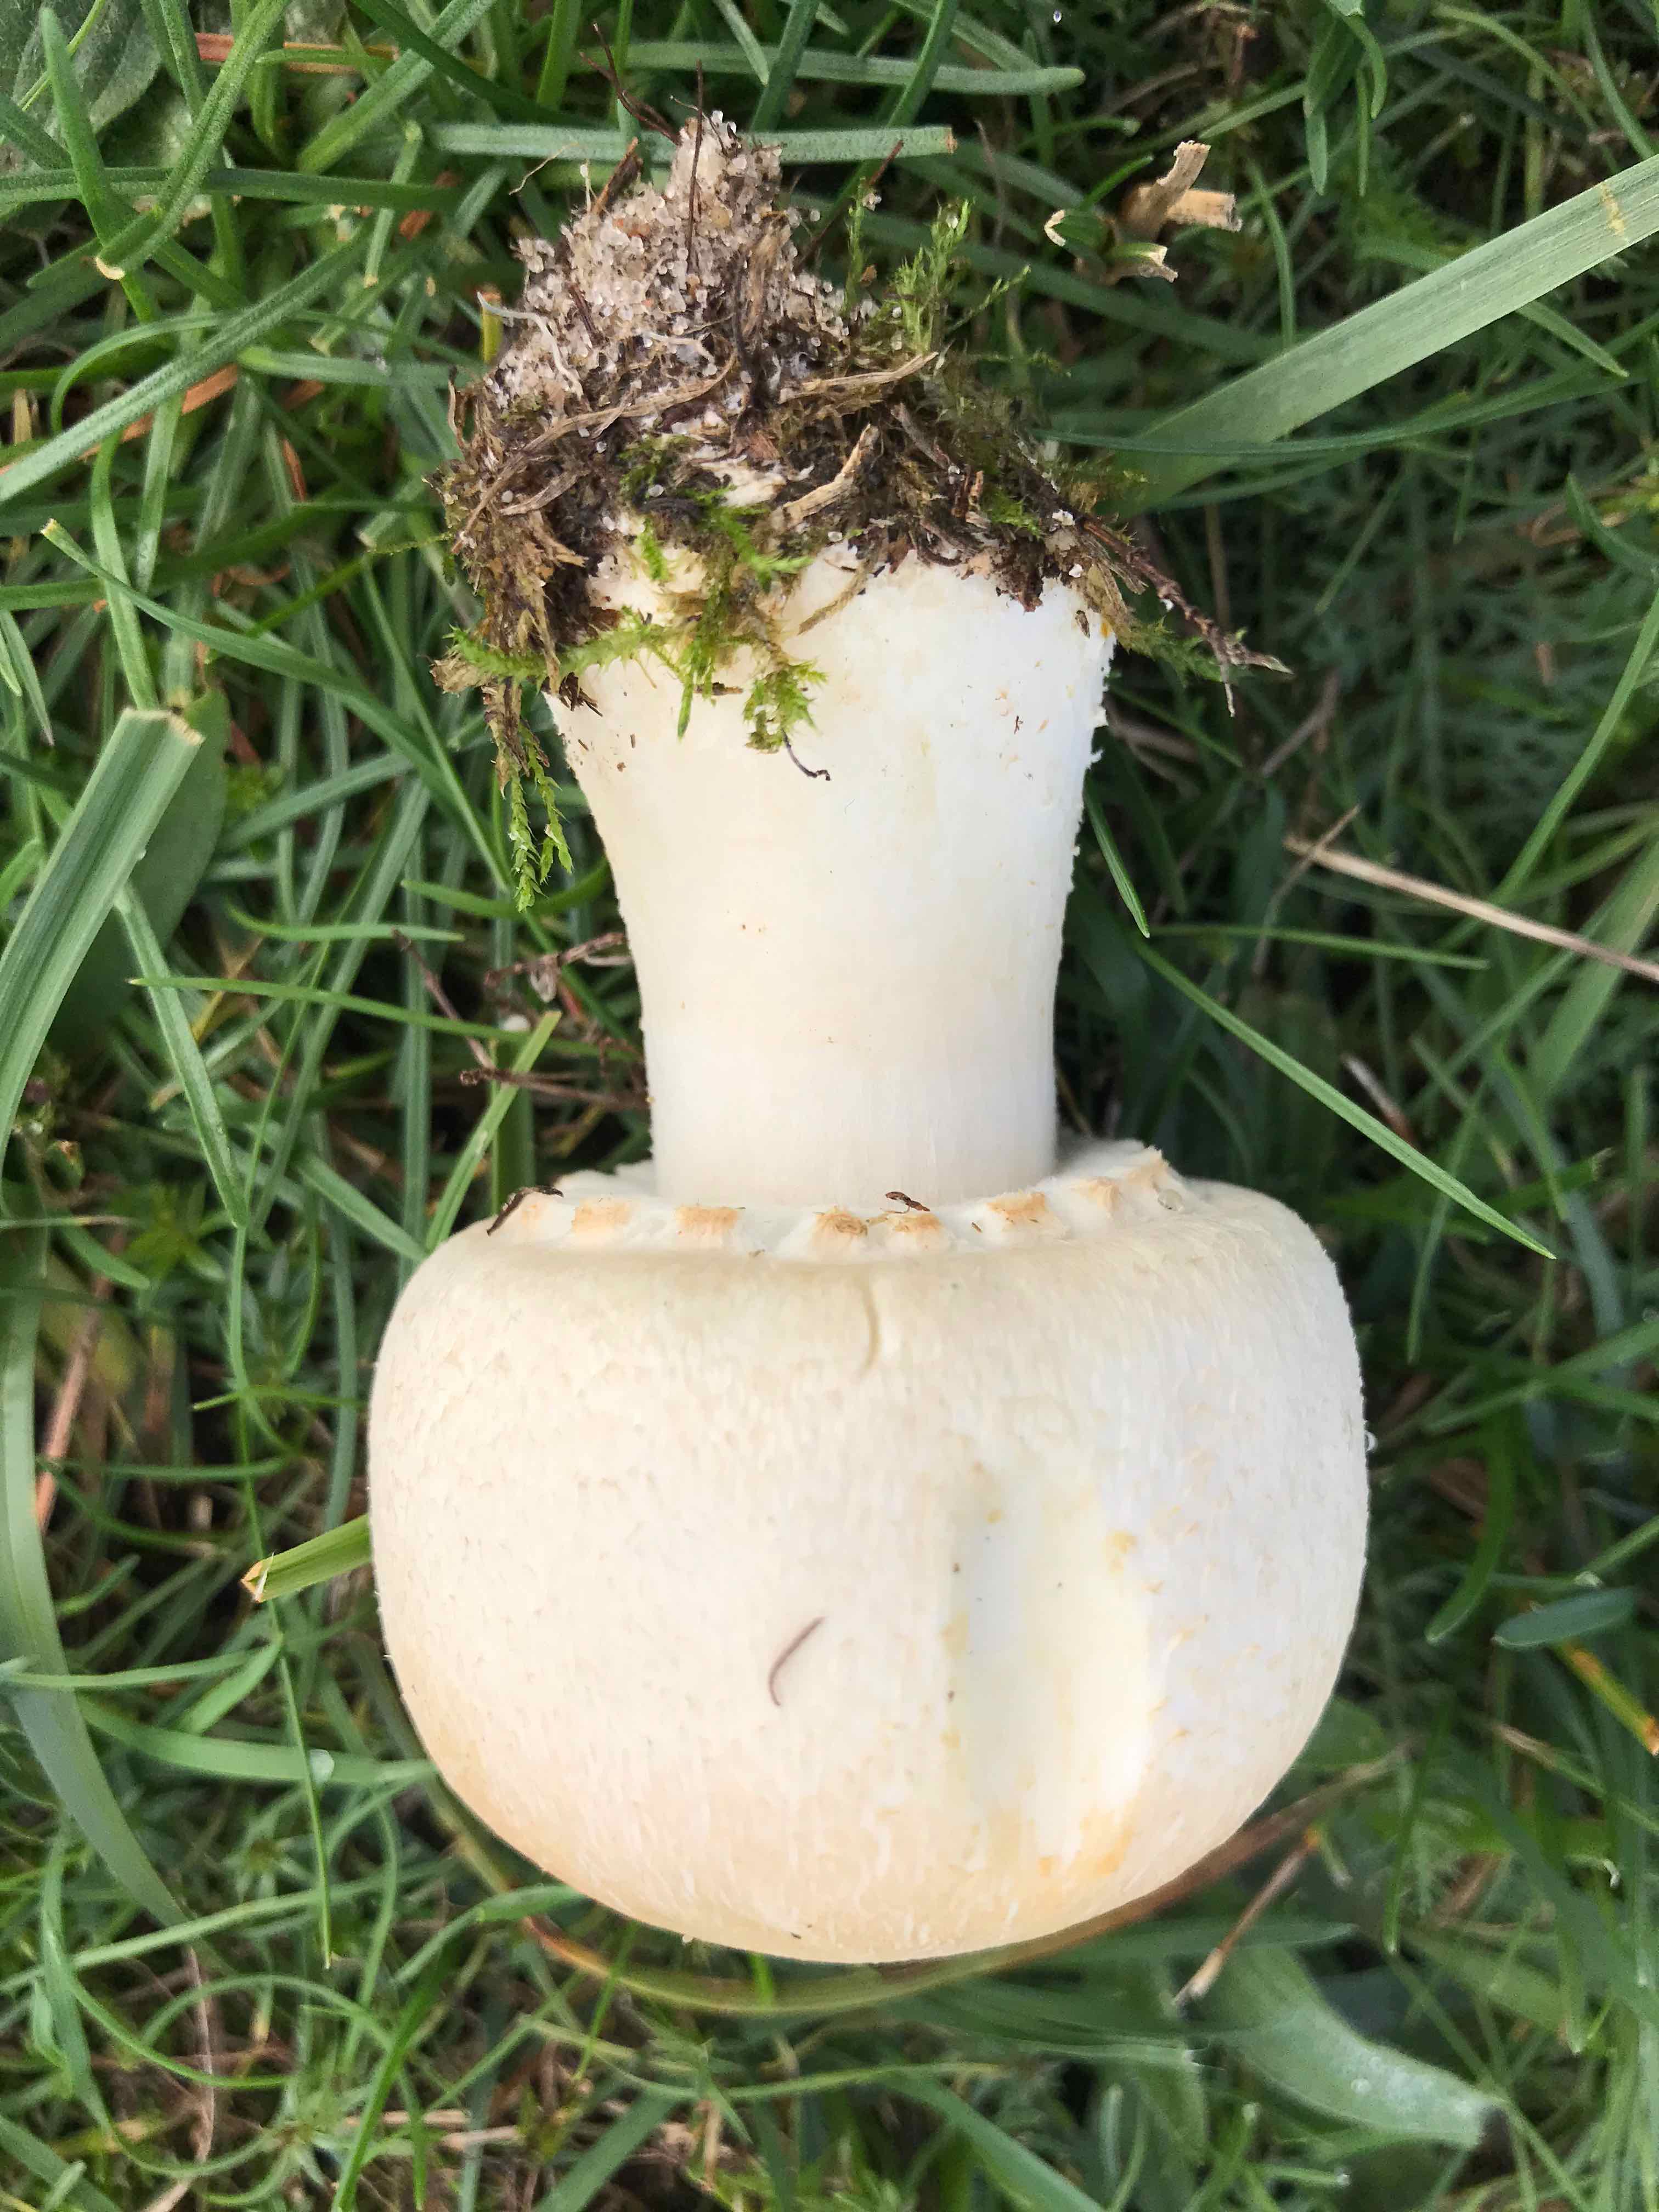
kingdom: Fungi
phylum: Basidiomycota
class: Agaricomycetes
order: Agaricales
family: Agaricaceae
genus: Agaricus
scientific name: Agaricus arvensis
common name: ager-champignon
